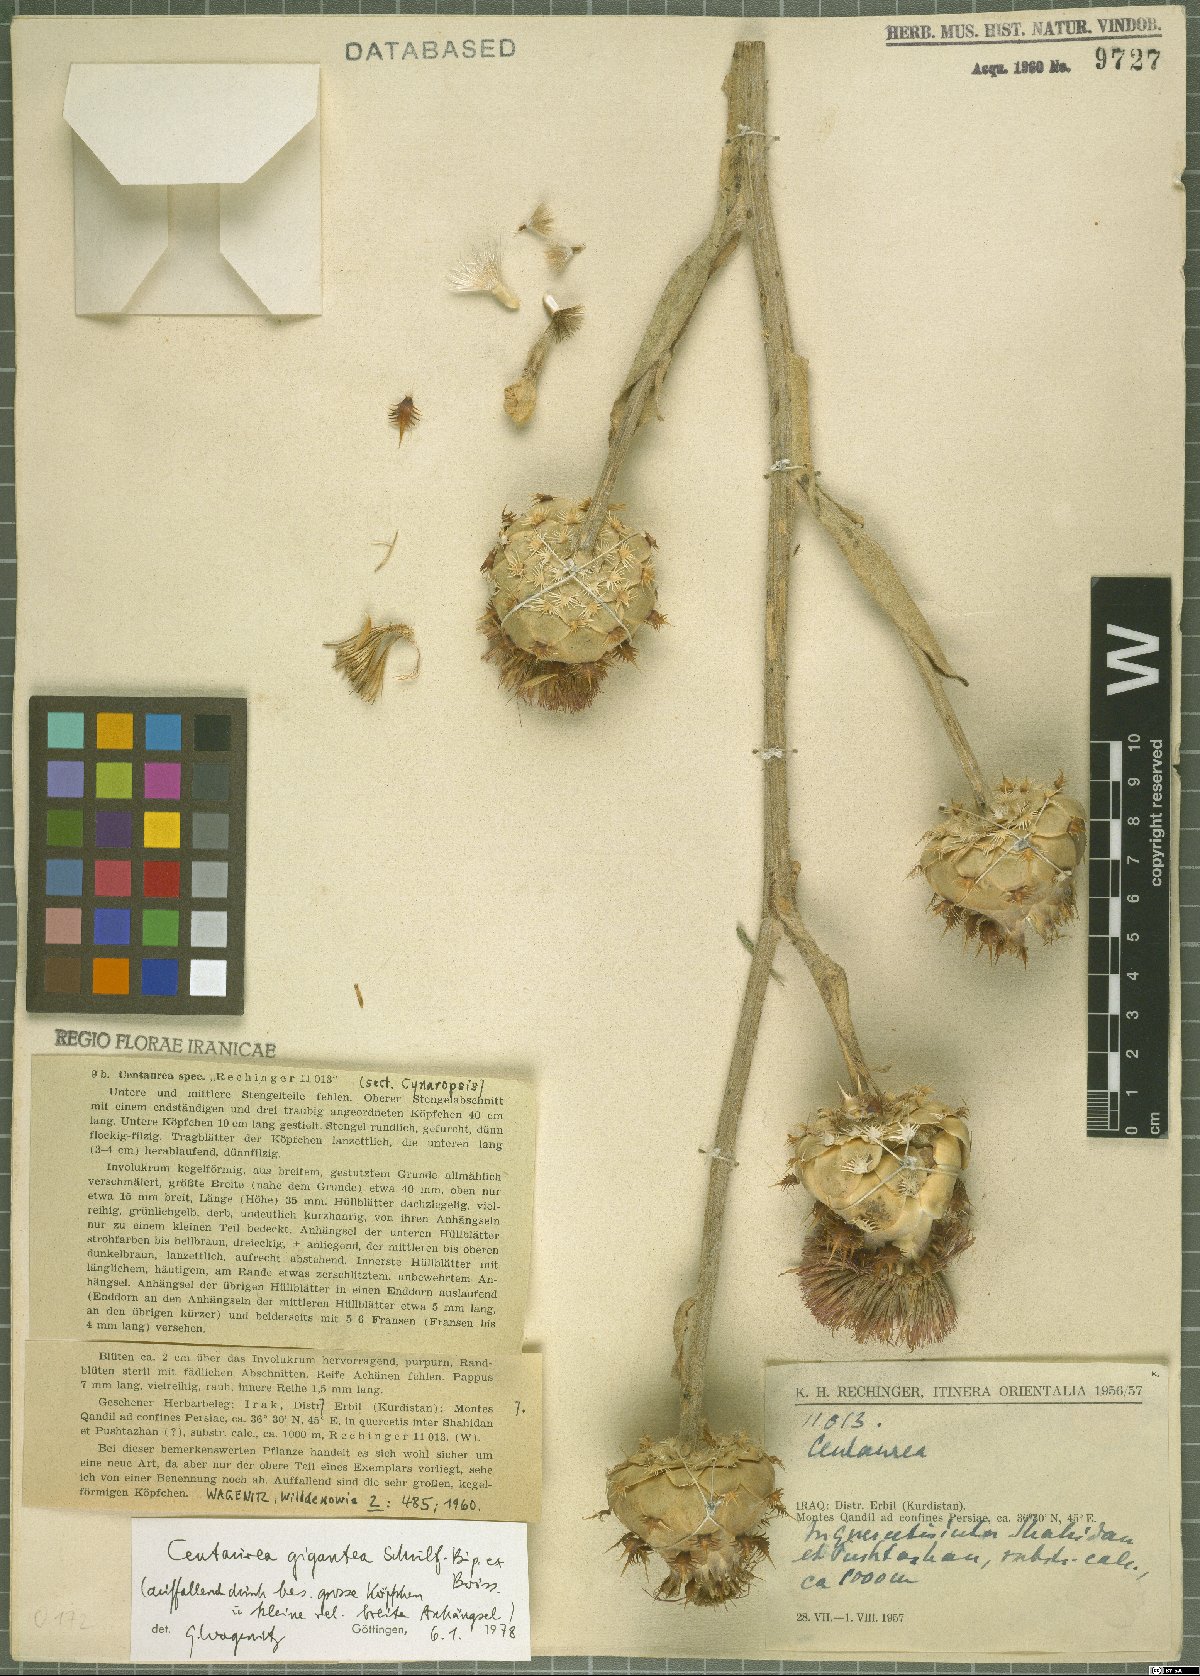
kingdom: Plantae
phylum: Tracheophyta
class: Magnoliopsida
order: Asterales
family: Asteraceae
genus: Centaurea
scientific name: Centaurea gigantea
